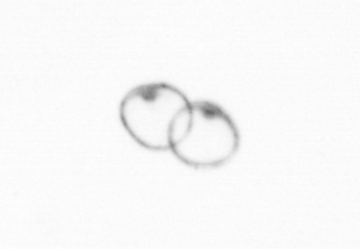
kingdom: Chromista
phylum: Myzozoa
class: Dinophyceae
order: Noctilucales
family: Noctilucaceae
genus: Noctiluca
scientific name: Noctiluca scintillans
